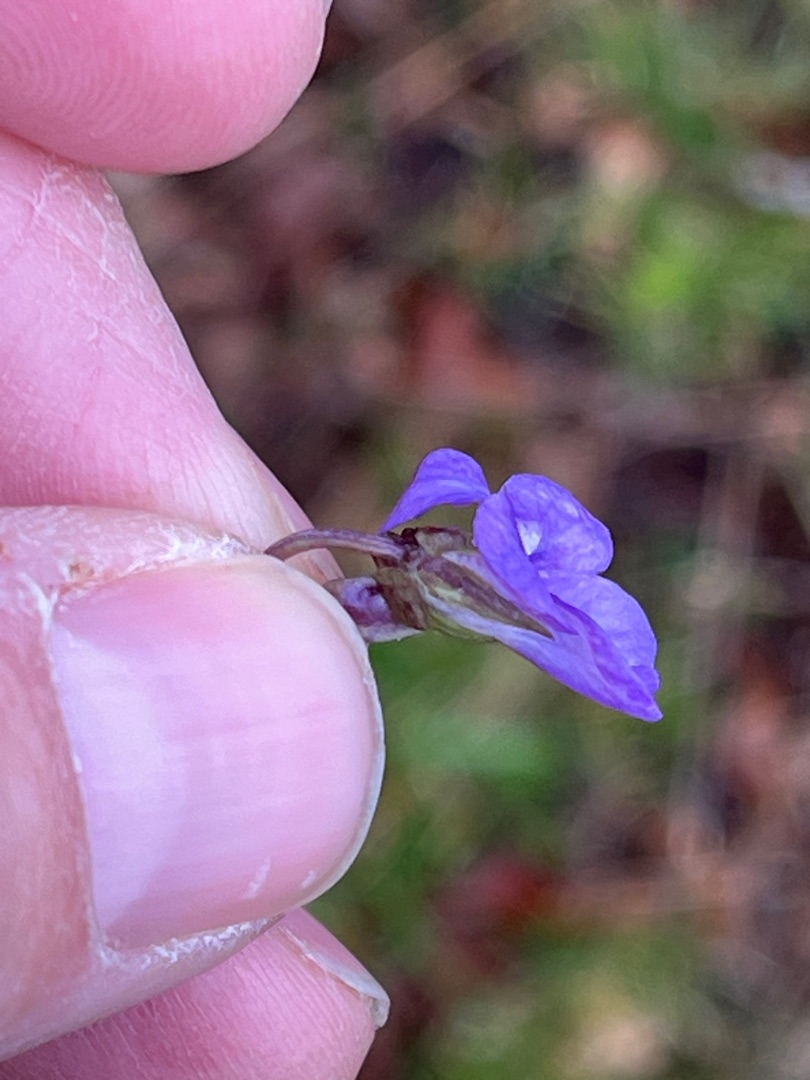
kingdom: Plantae
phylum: Tracheophyta
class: Magnoliopsida
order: Malpighiales
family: Violaceae
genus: Viola
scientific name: Viola reichenbachiana
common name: Skov-viol
